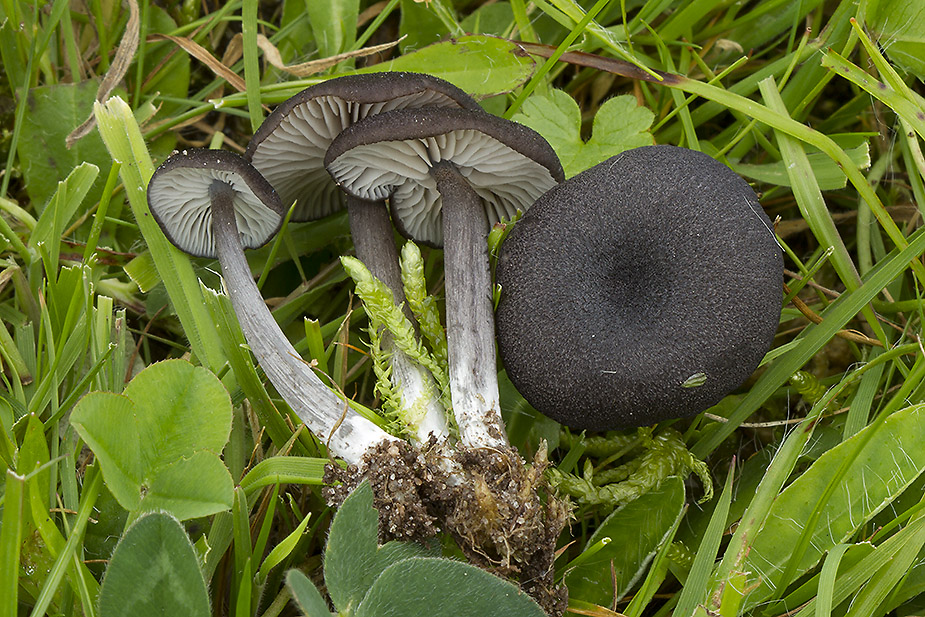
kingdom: Fungi
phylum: Basidiomycota
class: Agaricomycetes
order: Agaricales
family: Entolomataceae
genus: Entoloma
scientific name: Entoloma porphyrogriseum
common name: porfyrgrå rødblad
